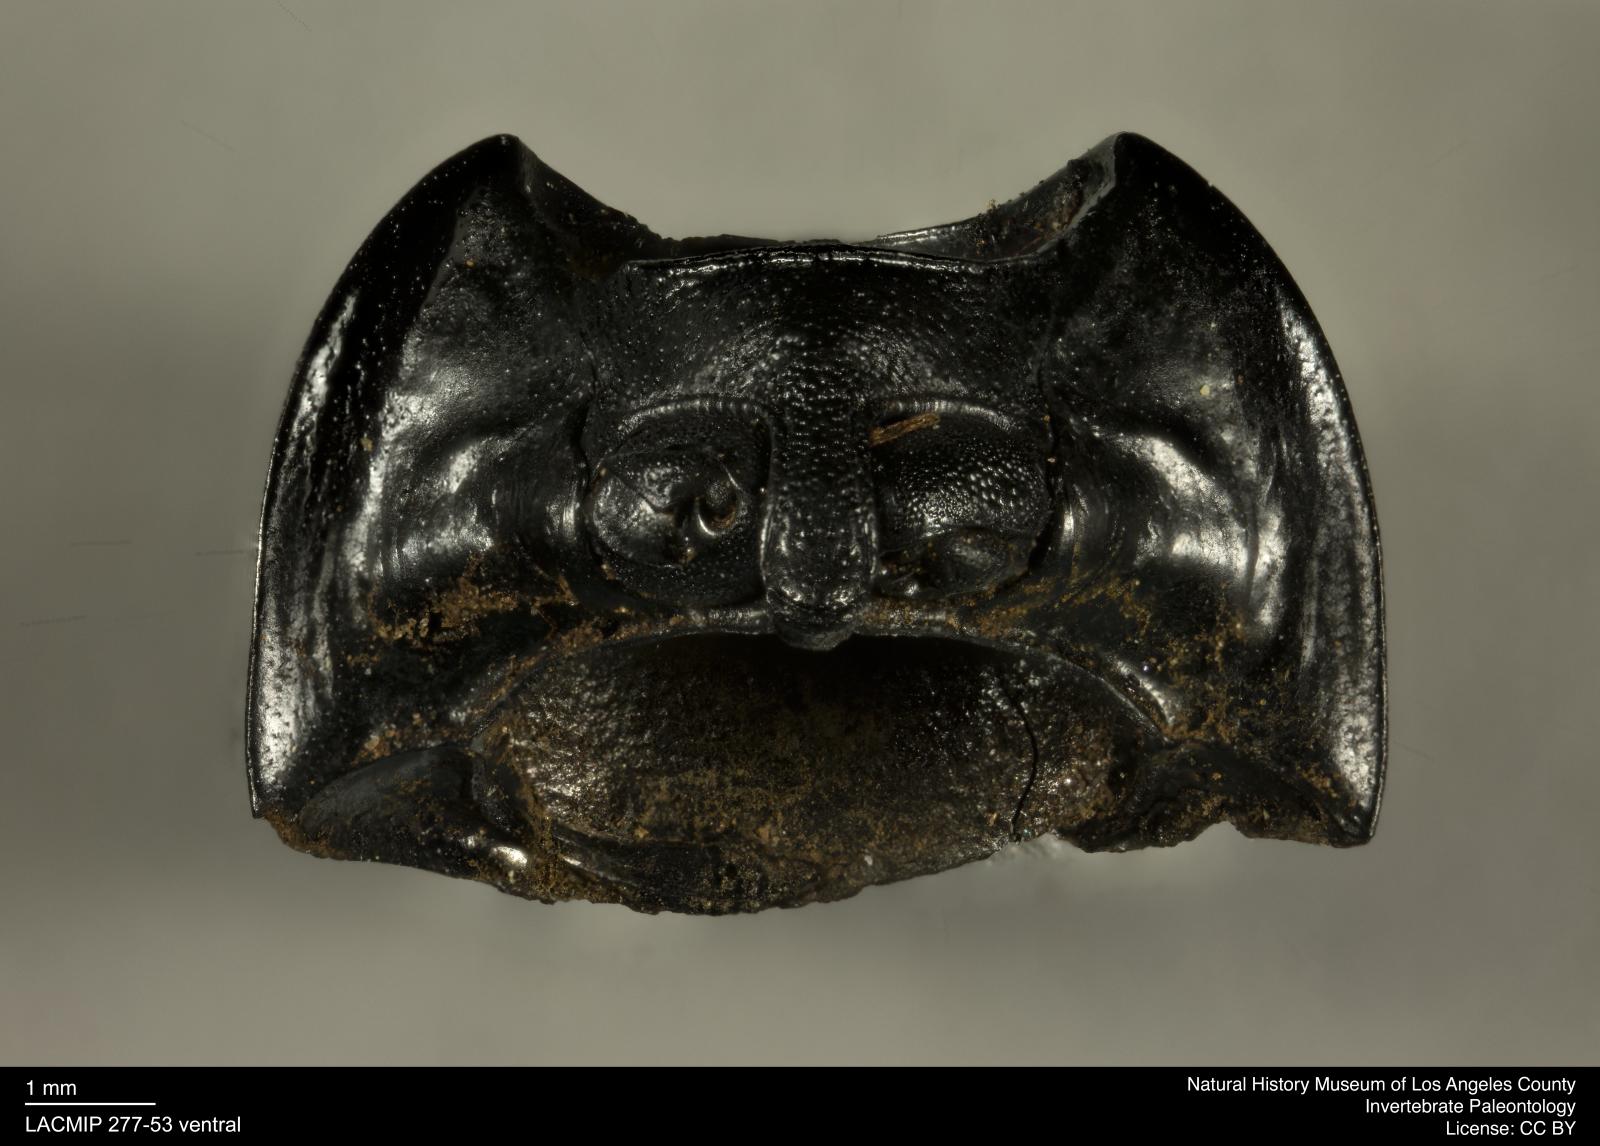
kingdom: Animalia
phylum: Arthropoda
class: Insecta
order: Coleoptera
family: Tenebrionidae
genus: Coniontis
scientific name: Coniontis abdominalis
